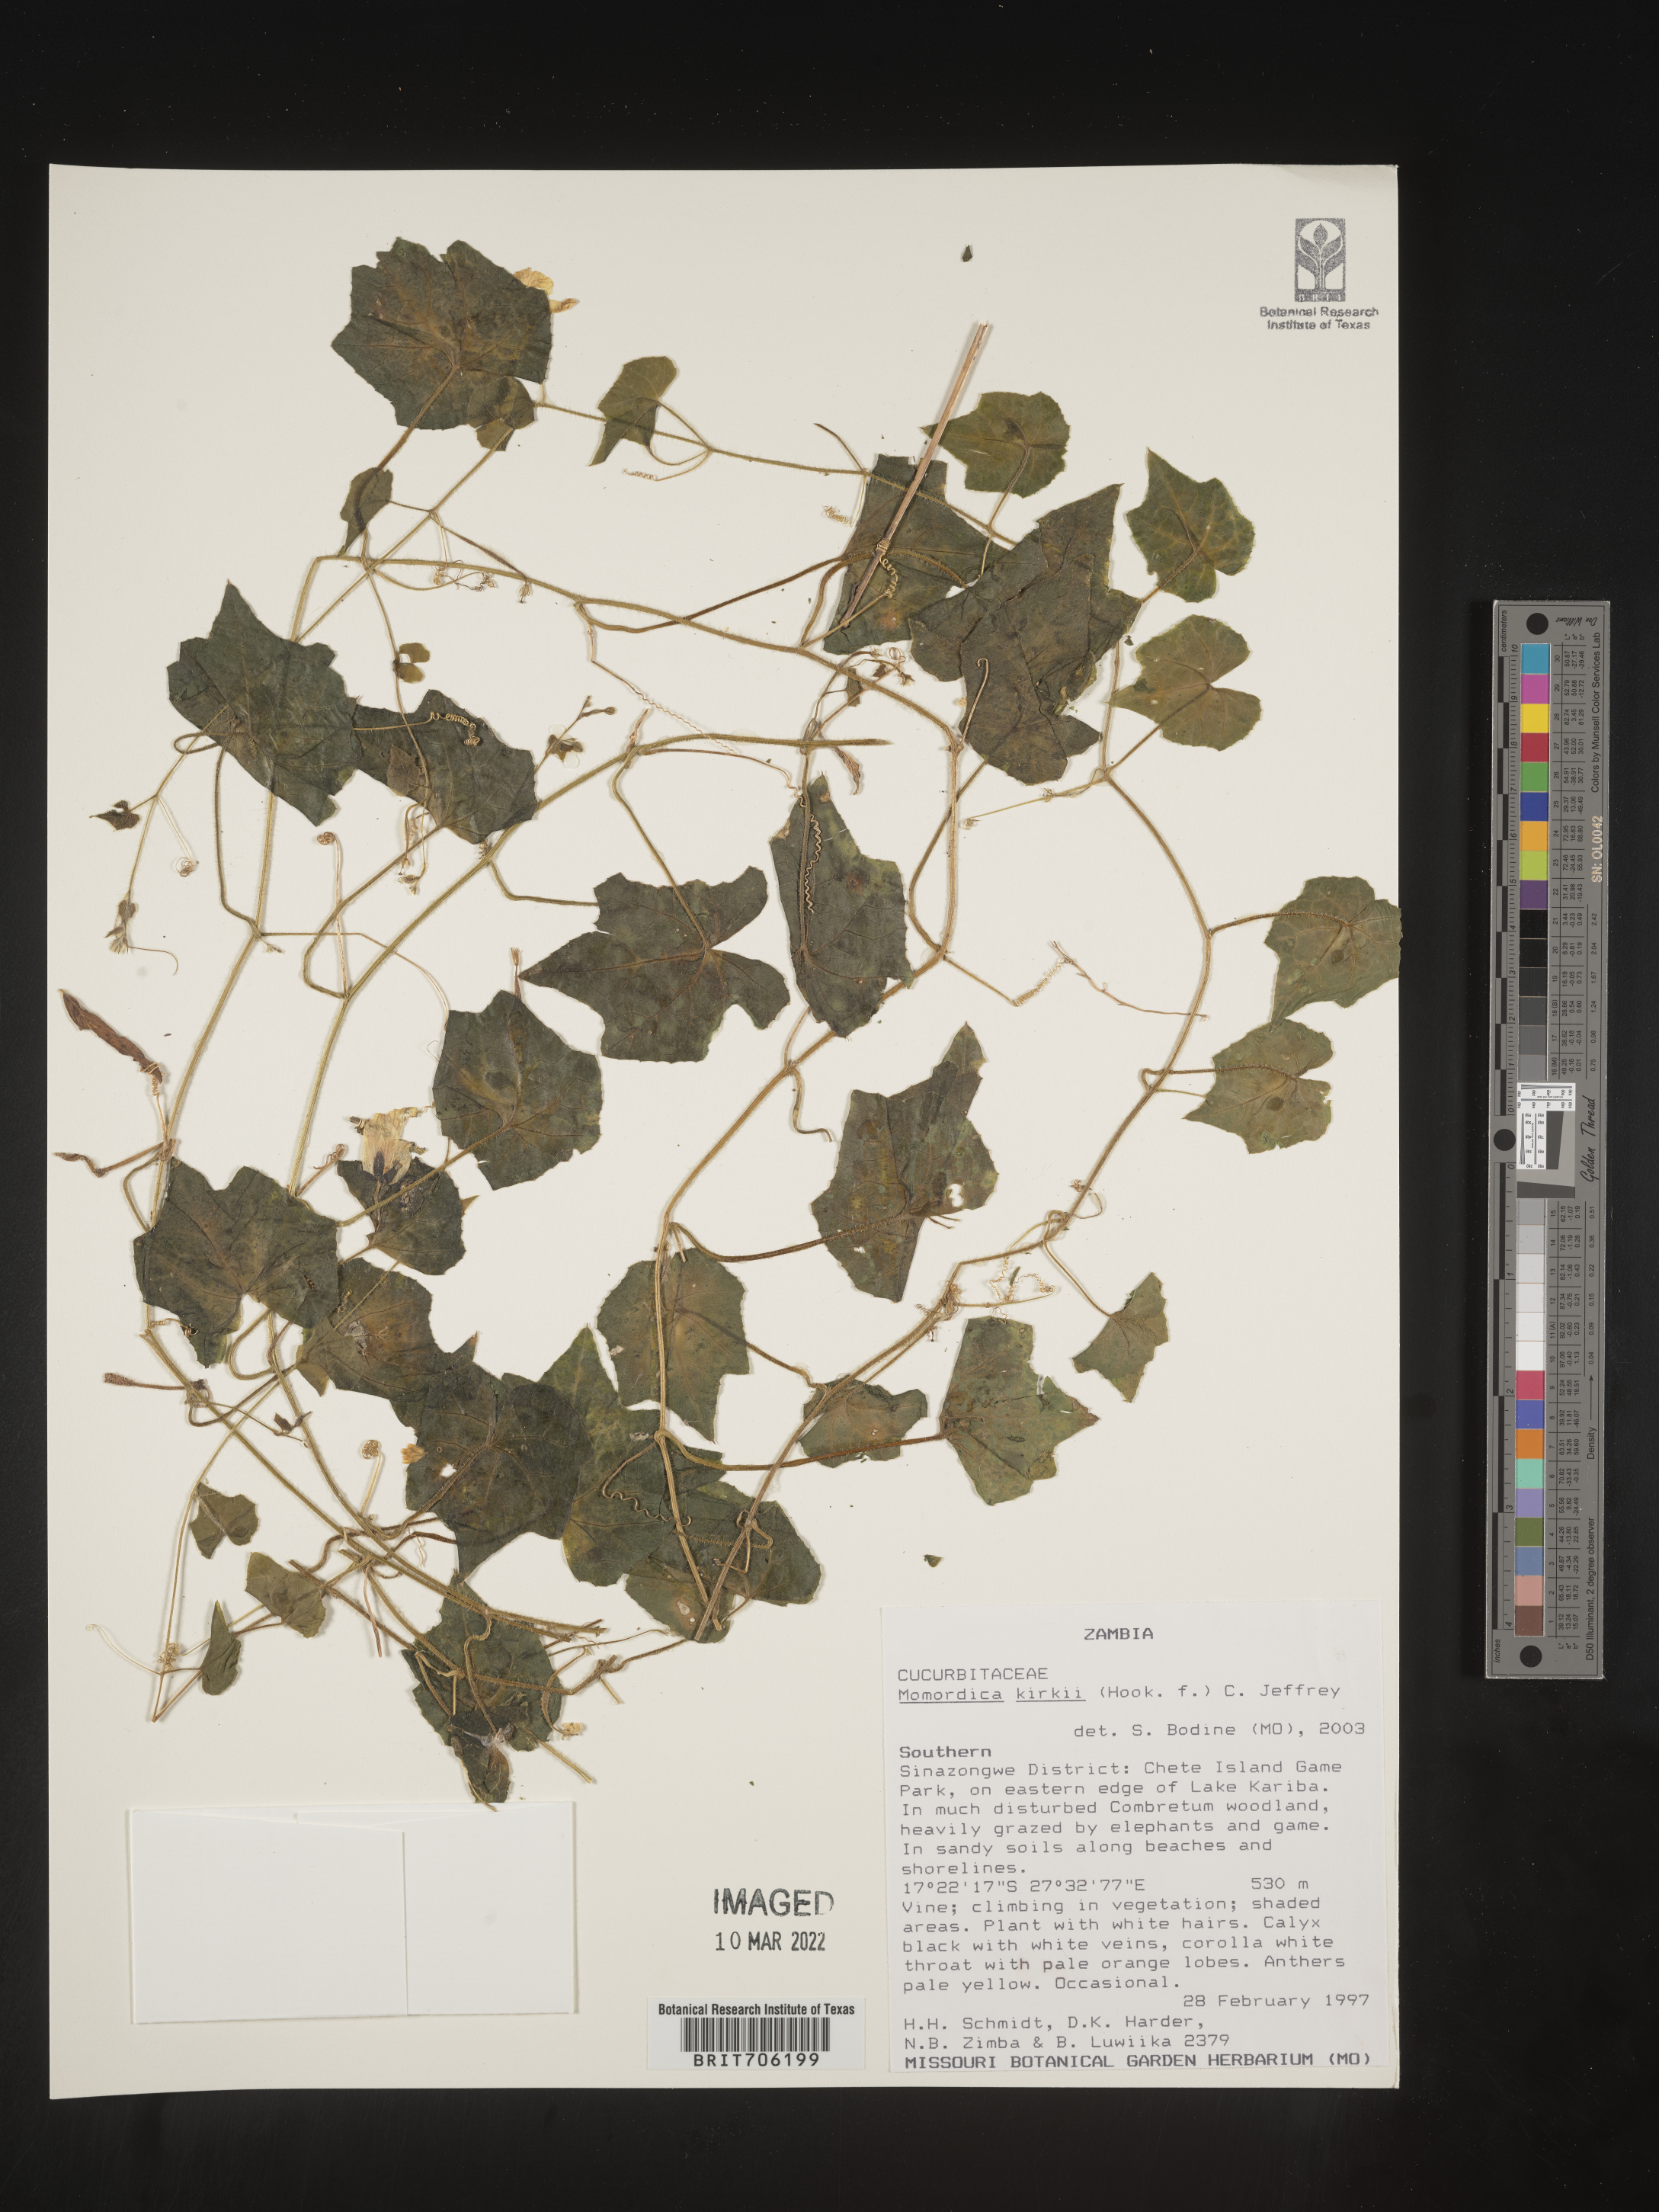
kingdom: Plantae
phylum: Tracheophyta
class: Magnoliopsida
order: Cucurbitales
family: Cucurbitaceae
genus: Momordica
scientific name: Momordica
